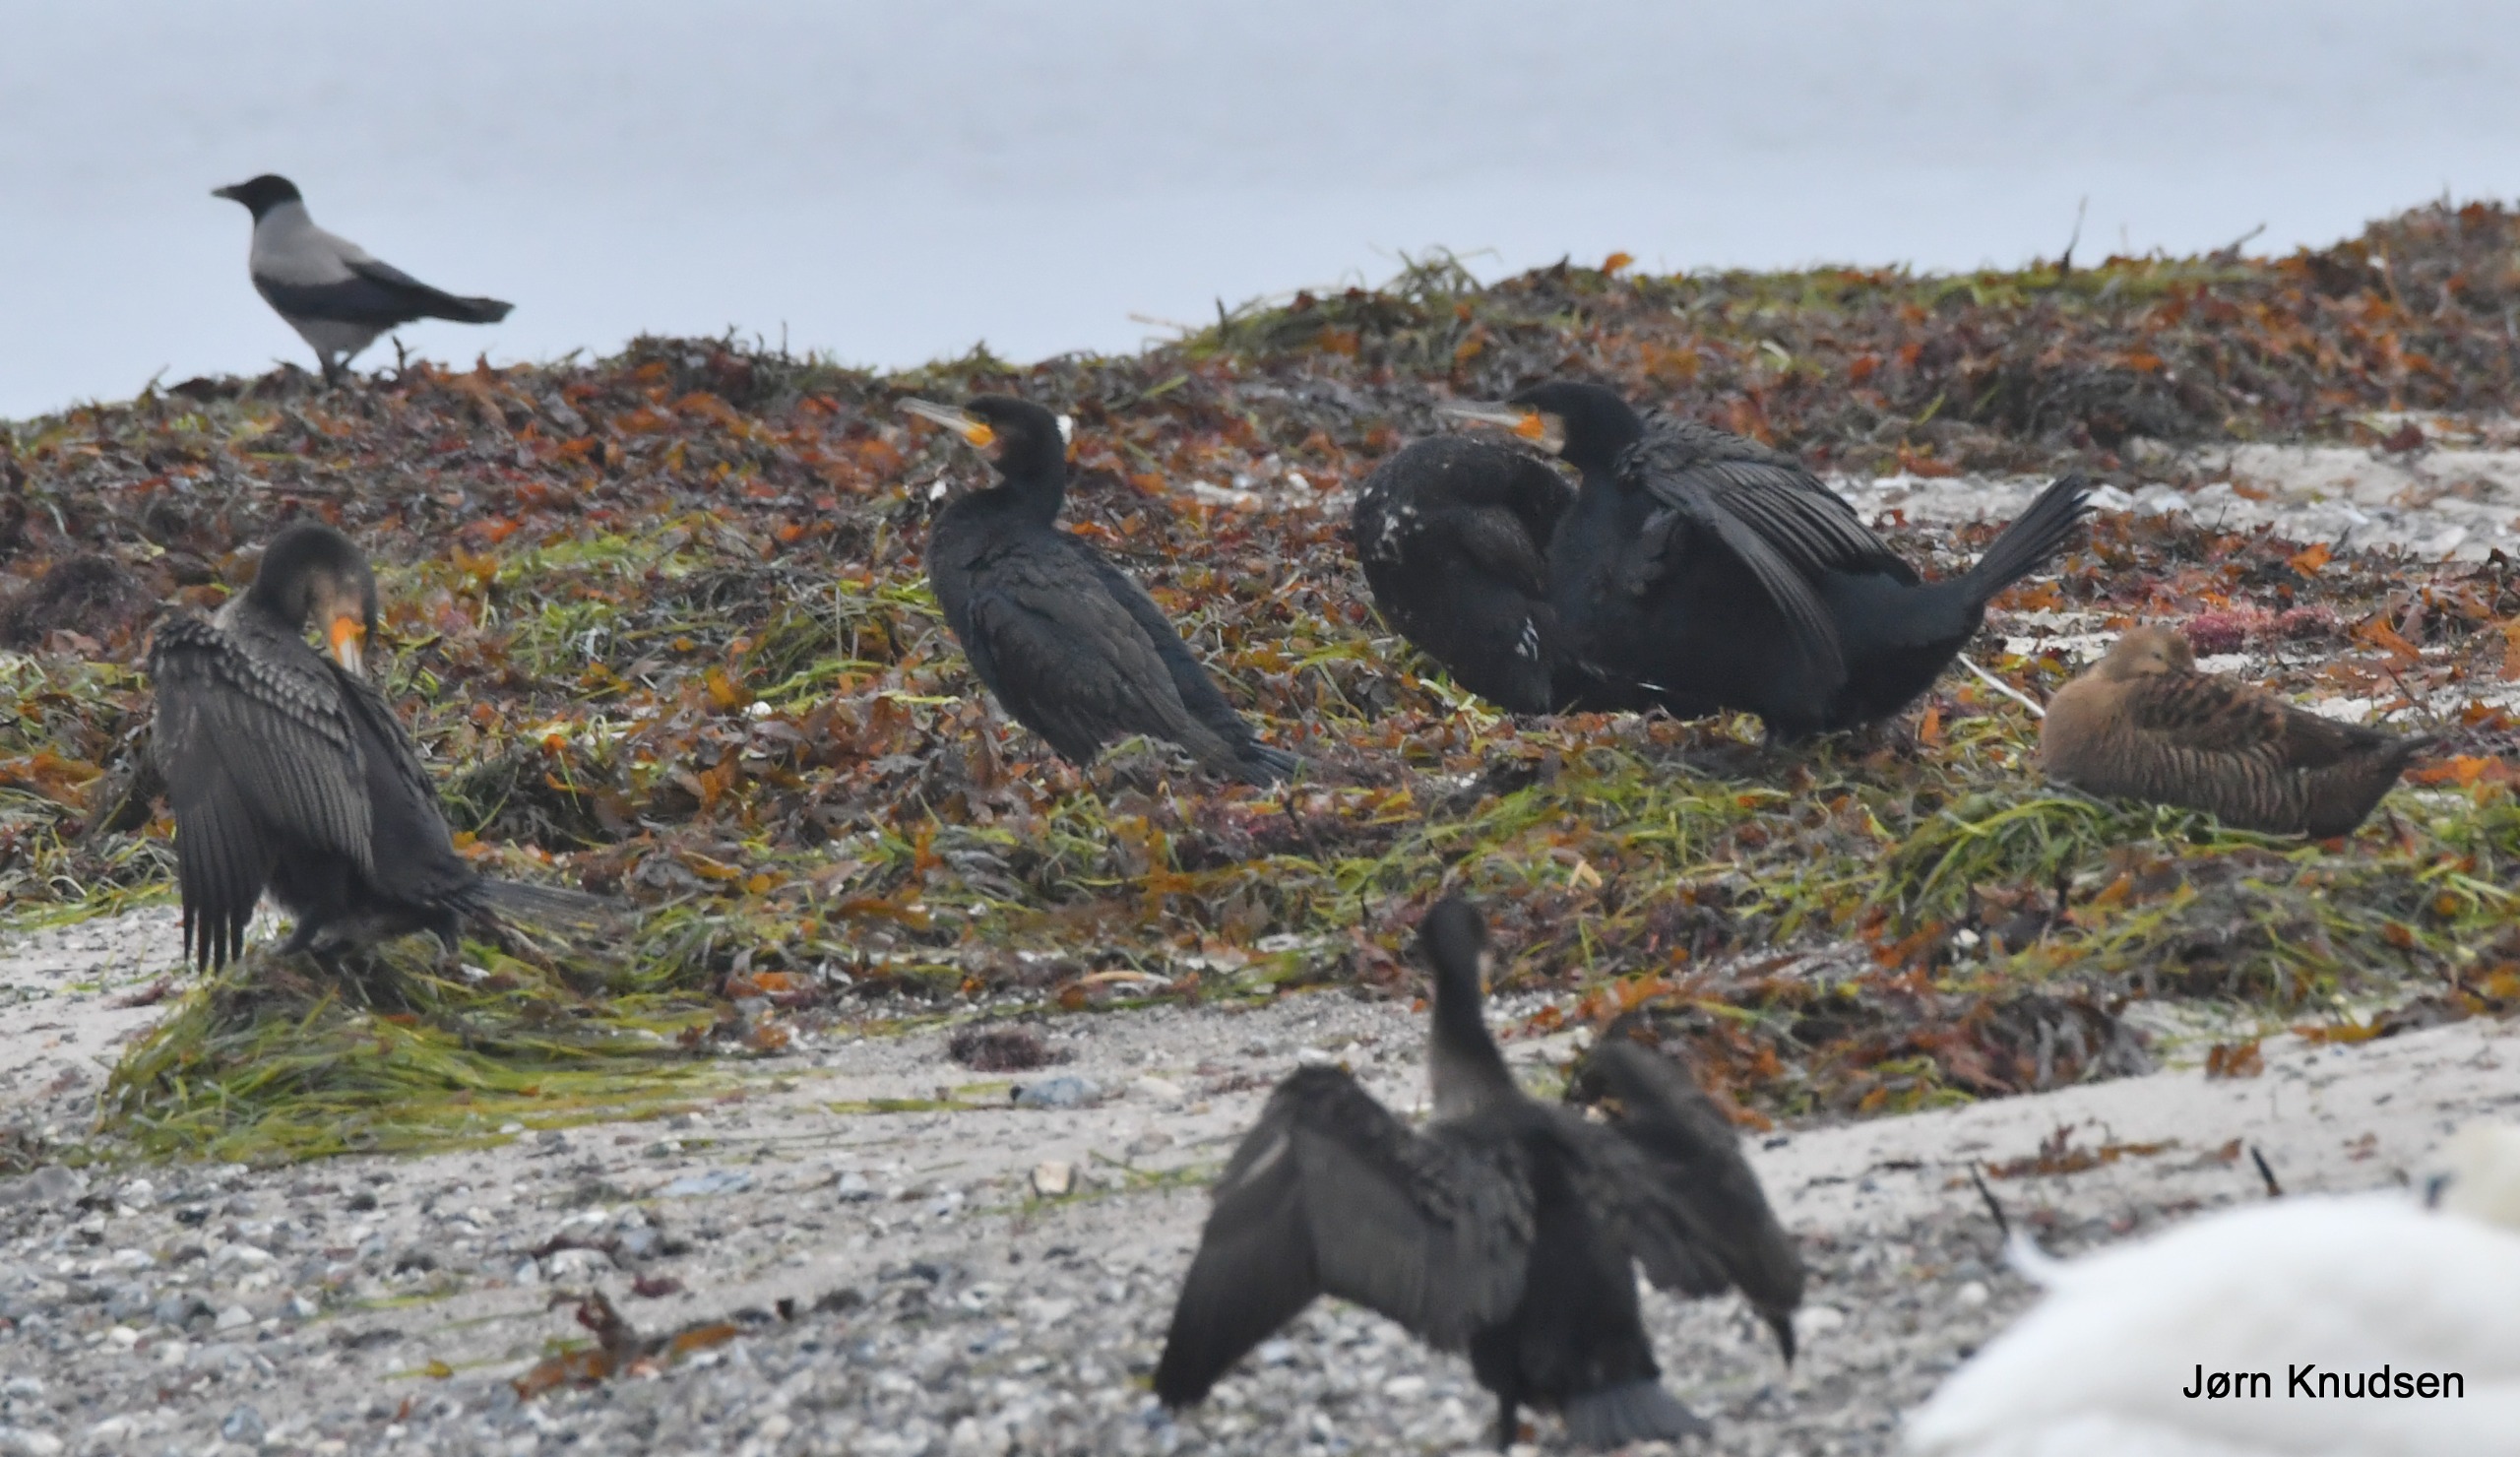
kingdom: Animalia
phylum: Chordata
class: Aves
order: Anseriformes
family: Anatidae
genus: Somateria
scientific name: Somateria mollissima
